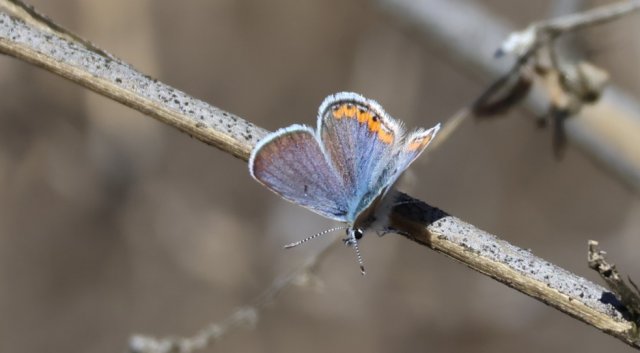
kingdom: Animalia
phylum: Arthropoda
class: Insecta
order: Lepidoptera
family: Lycaenidae
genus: Plebejus
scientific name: Plebejus acmon
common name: Acmon Blue
